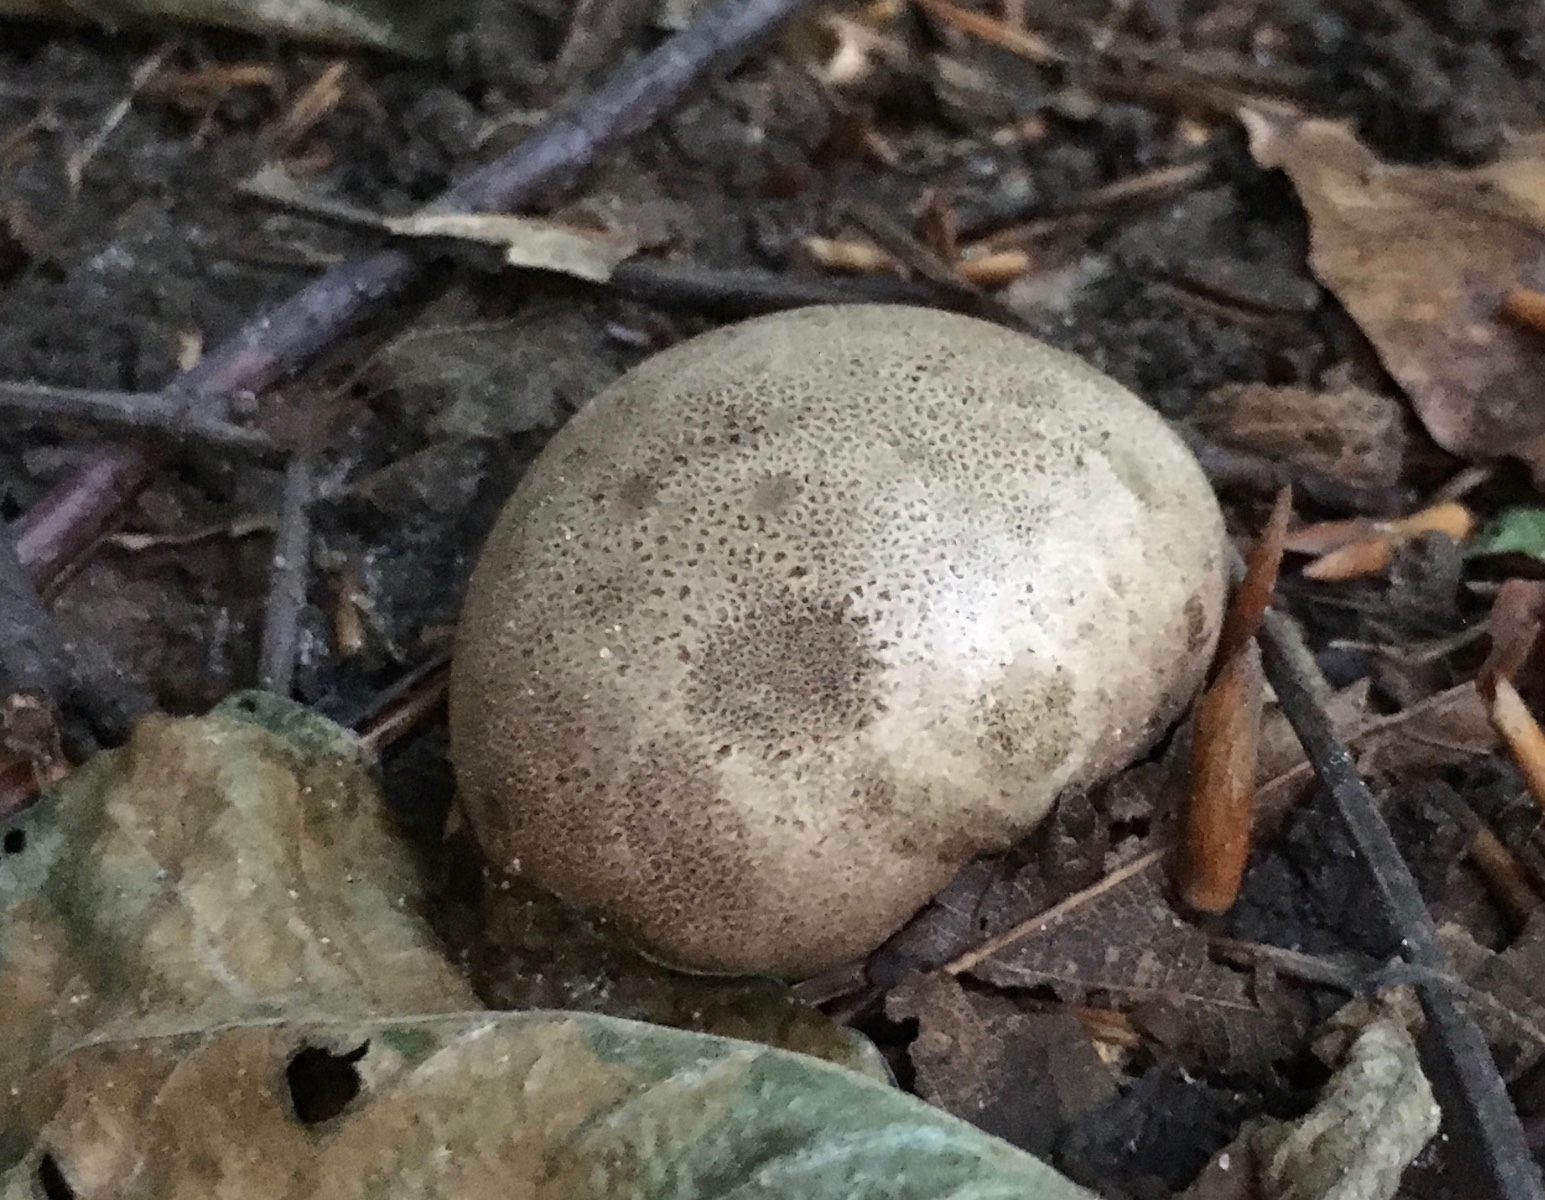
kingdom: Fungi
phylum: Basidiomycota
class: Agaricomycetes
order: Boletales
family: Sclerodermataceae
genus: Scleroderma
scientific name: Scleroderma bovista
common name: bovist-bruskbold
